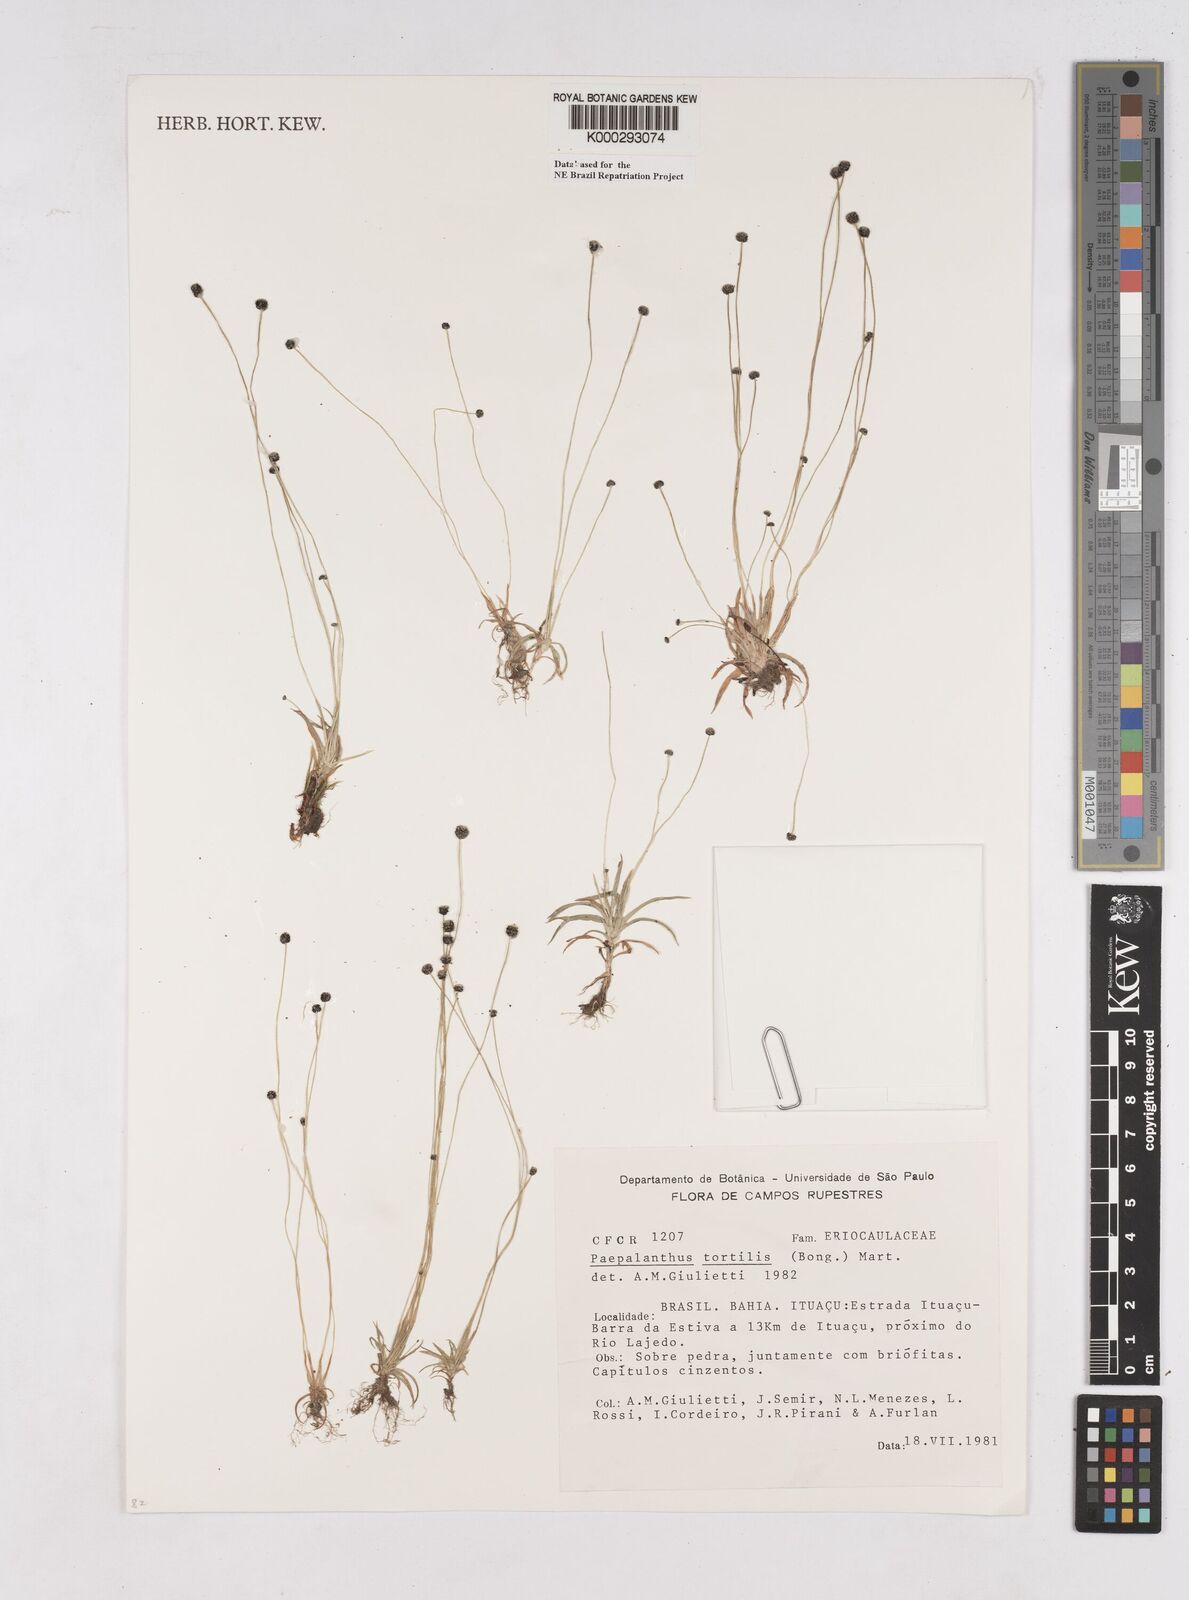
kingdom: Plantae
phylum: Tracheophyta
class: Liliopsida
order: Poales
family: Eriocaulaceae
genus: Paepalanthus
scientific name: Paepalanthus
